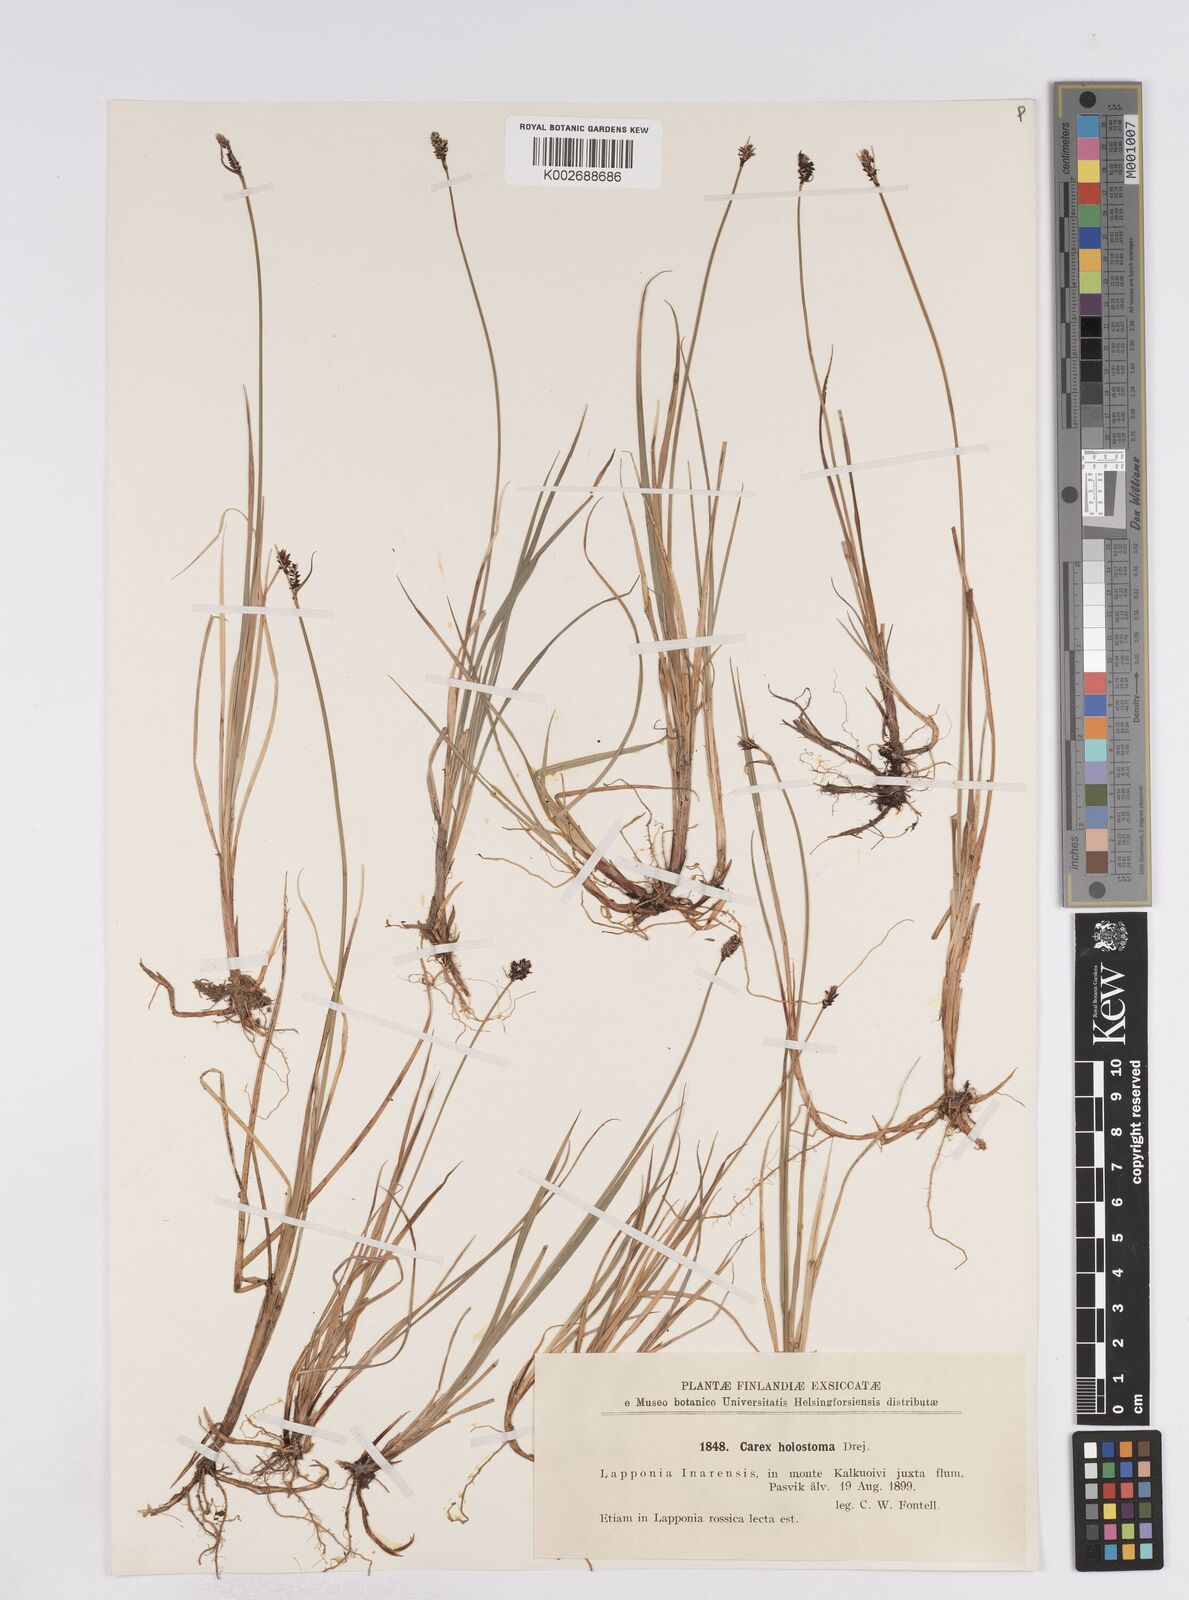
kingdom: Plantae
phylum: Tracheophyta
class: Liliopsida
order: Poales
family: Cyperaceae
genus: Carex
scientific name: Carex holostoma
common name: Arctic marsh sedge
